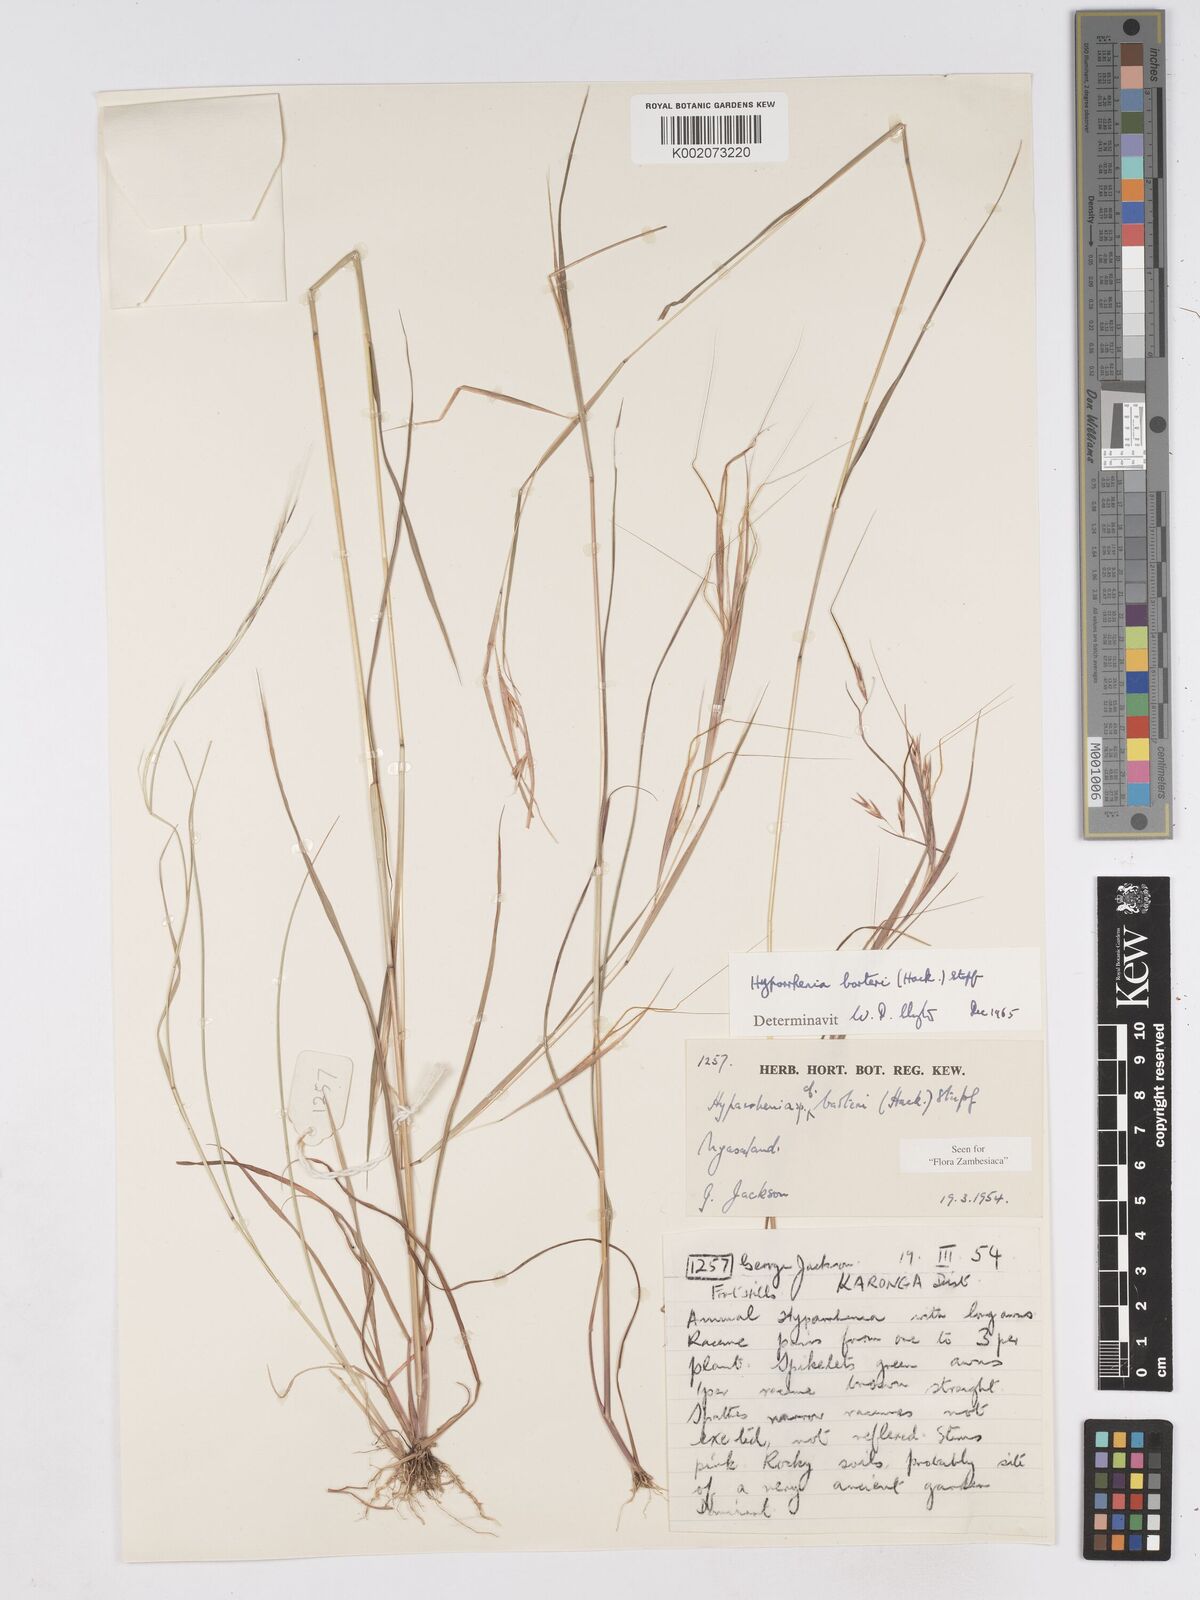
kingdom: Plantae
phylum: Tracheophyta
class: Liliopsida
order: Poales
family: Poaceae
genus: Hyparrhenia
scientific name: Hyparrhenia barteri
